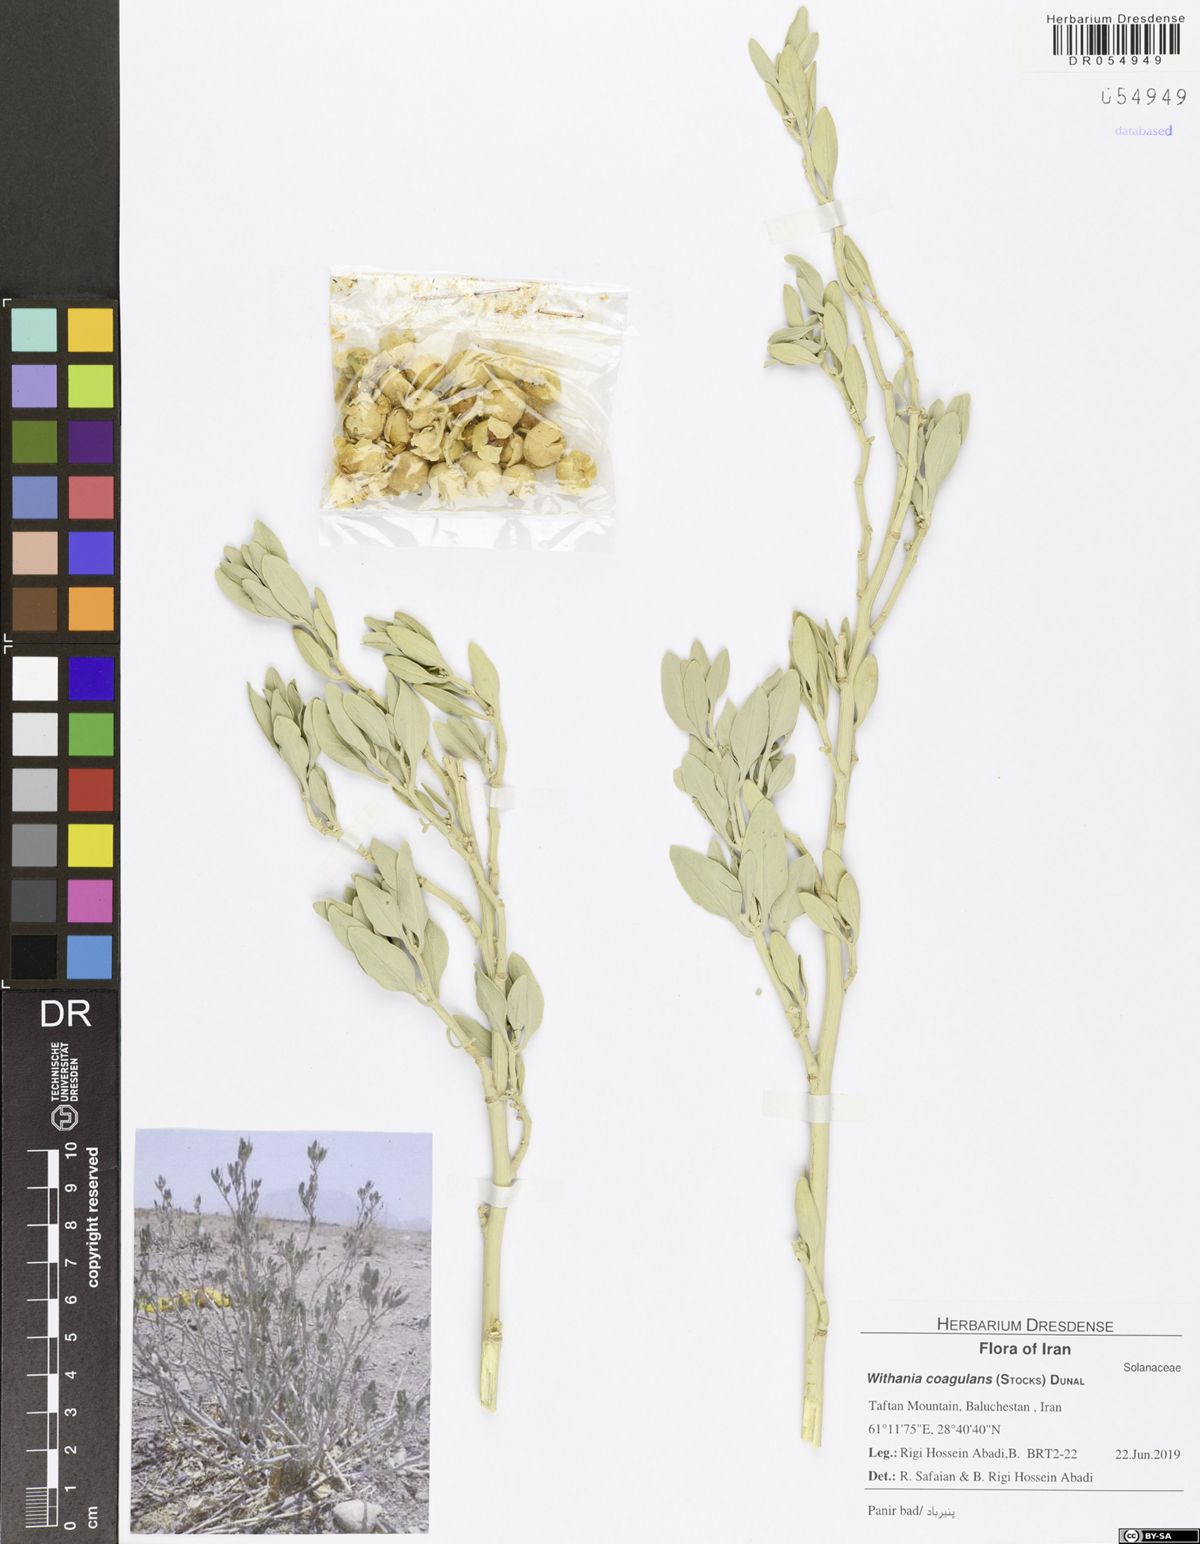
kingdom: Plantae
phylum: Tracheophyta
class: Magnoliopsida
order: Solanales
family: Solanaceae
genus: Withania
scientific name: Withania coagulans
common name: Vegetable rennet
